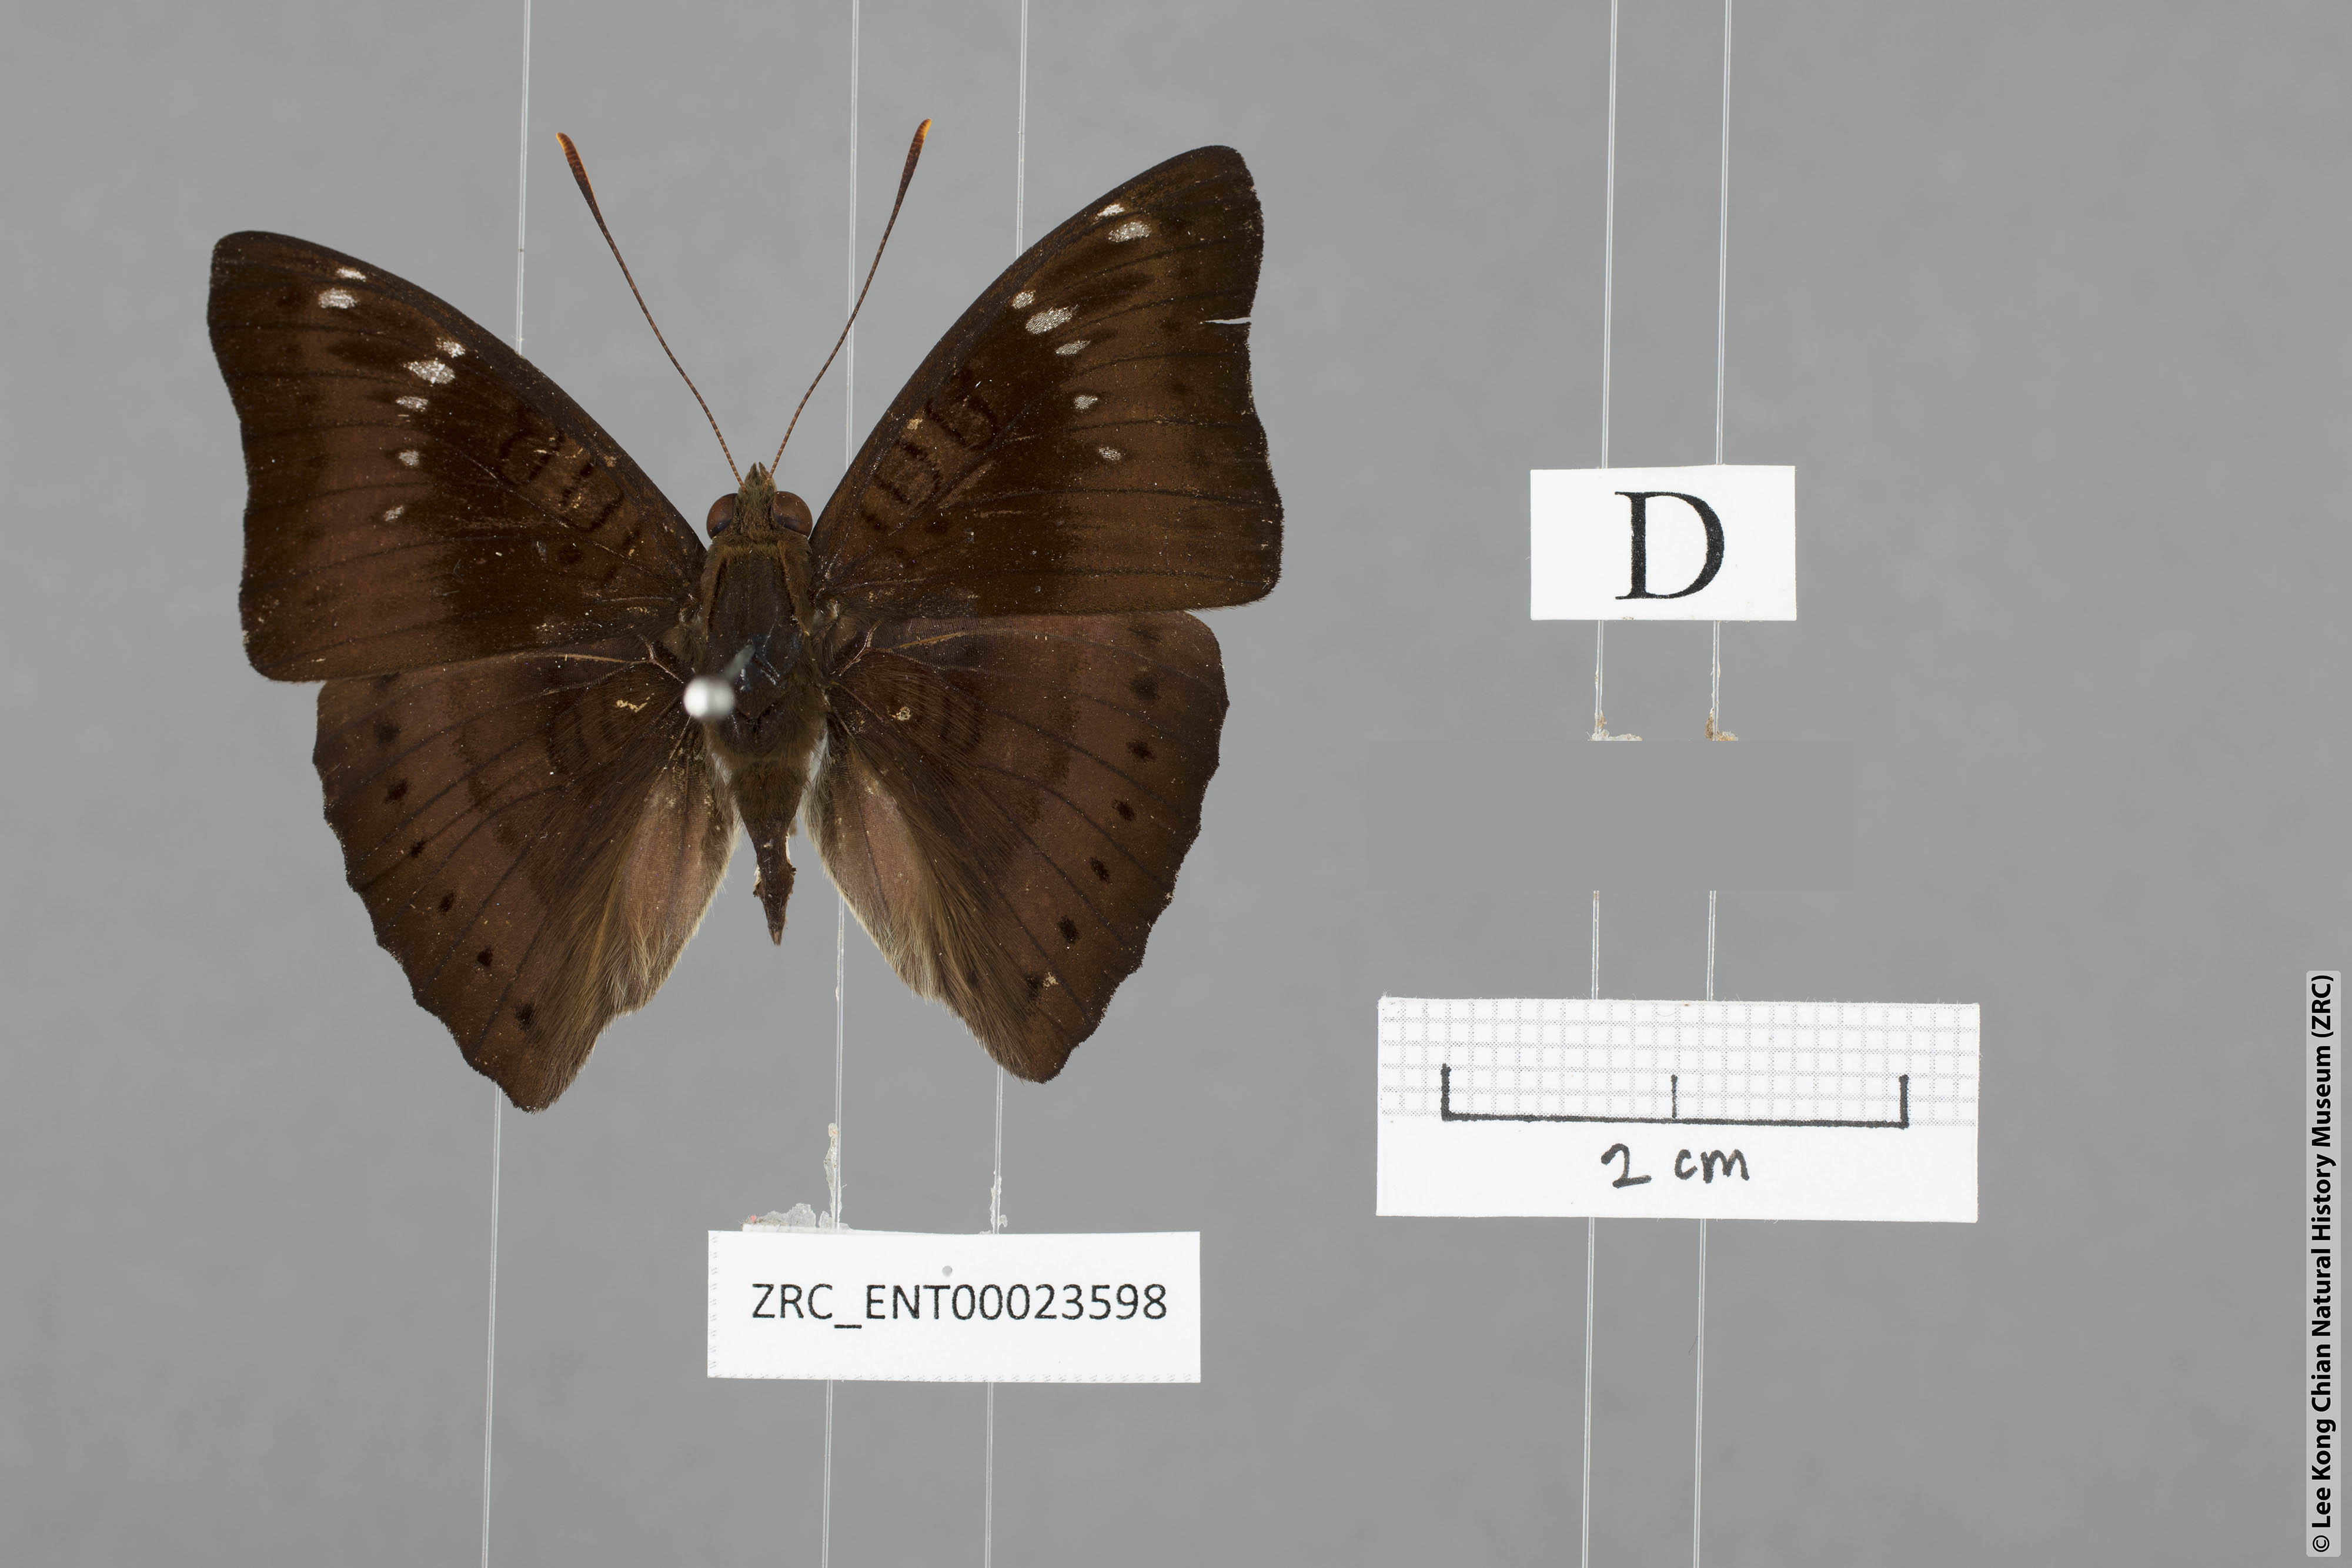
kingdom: Animalia
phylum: Arthropoda
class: Insecta
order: Lepidoptera
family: Nymphalidae
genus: Euthalia
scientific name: Euthalia agnis
